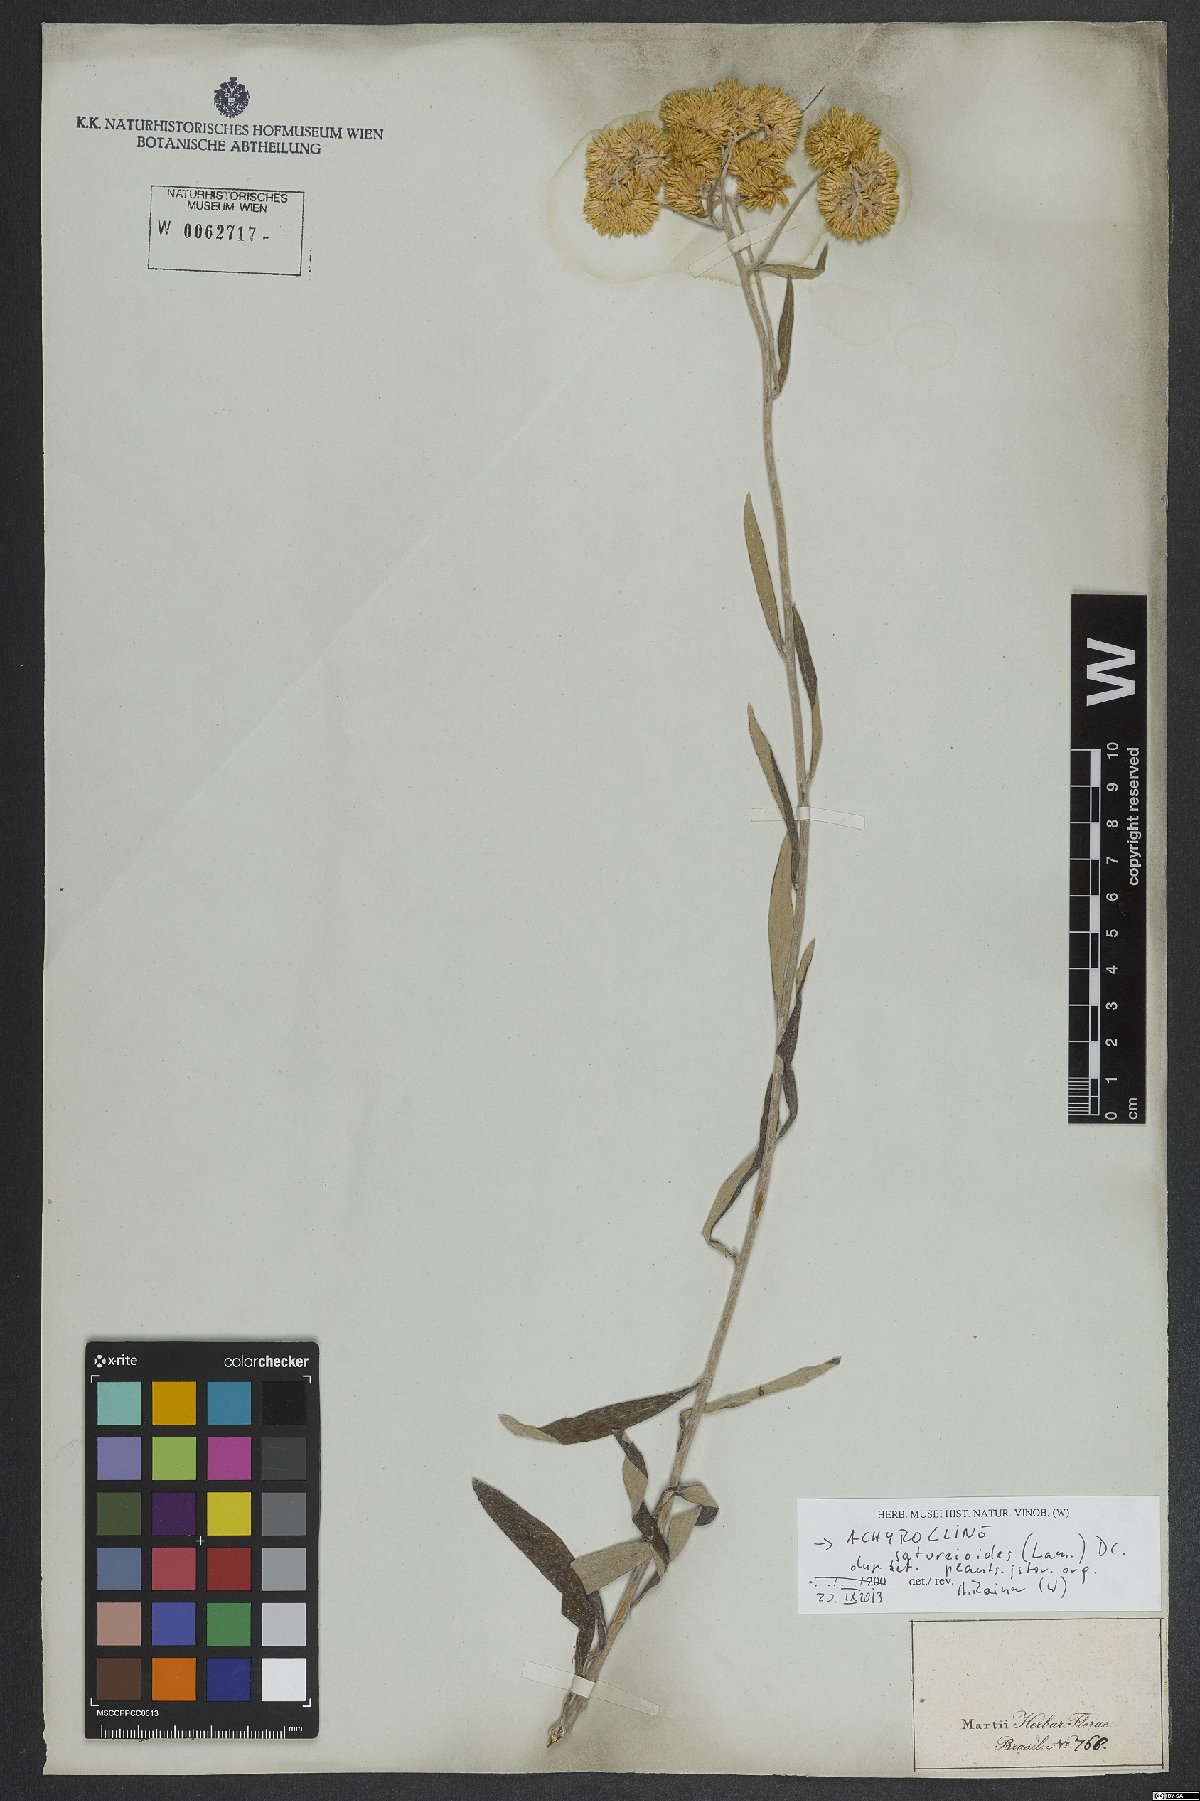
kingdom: Plantae
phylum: Tracheophyta
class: Magnoliopsida
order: Asterales
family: Asteraceae
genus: Achyrocline
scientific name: Achyrocline satureioides
